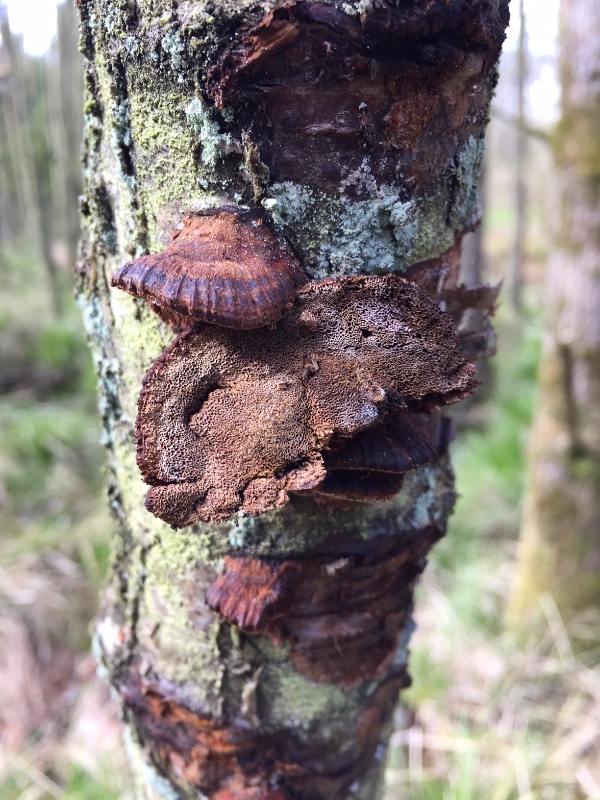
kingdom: Fungi
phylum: Basidiomycota
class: Agaricomycetes
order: Hymenochaetales
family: Hymenochaetaceae
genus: Xanthoporia
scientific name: Xanthoporia radiata
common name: elle-spejlporesvamp
